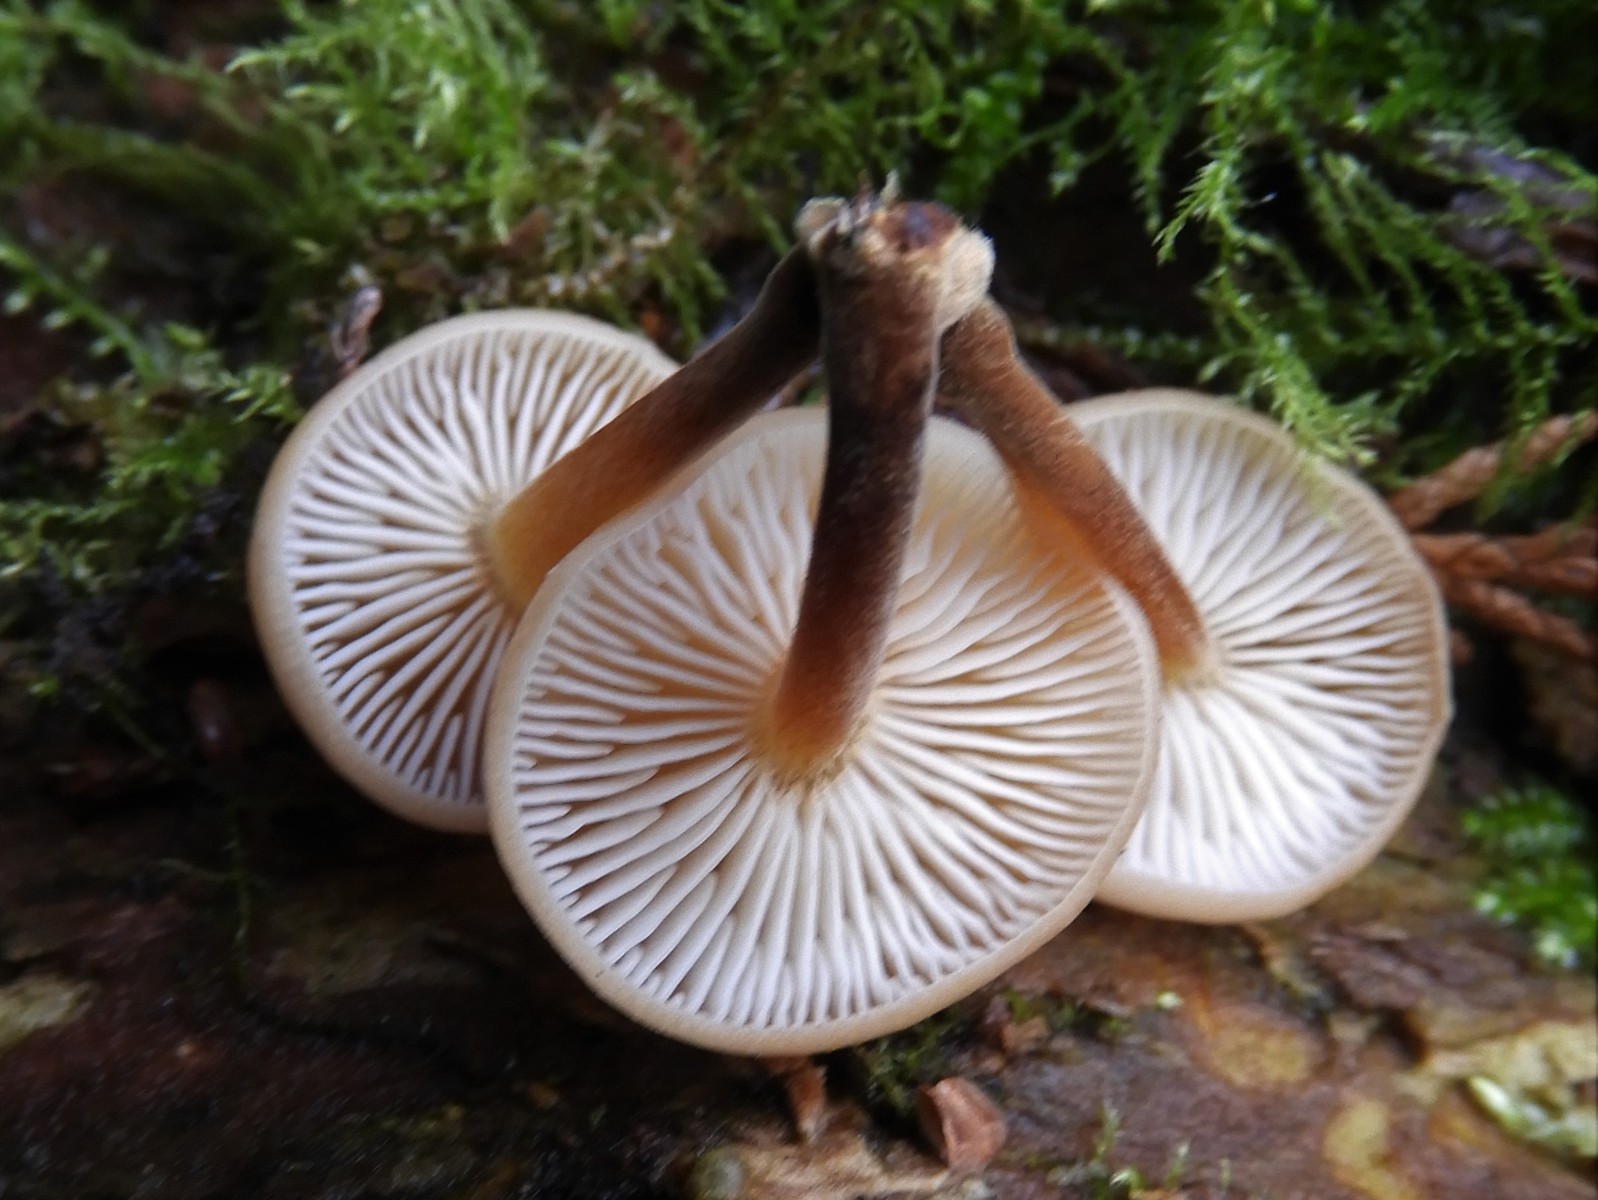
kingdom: Fungi
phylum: Basidiomycota
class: Agaricomycetes
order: Agaricales
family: Physalacriaceae
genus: Flammulina
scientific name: Flammulina velutipes
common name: gul fløjlsfod
